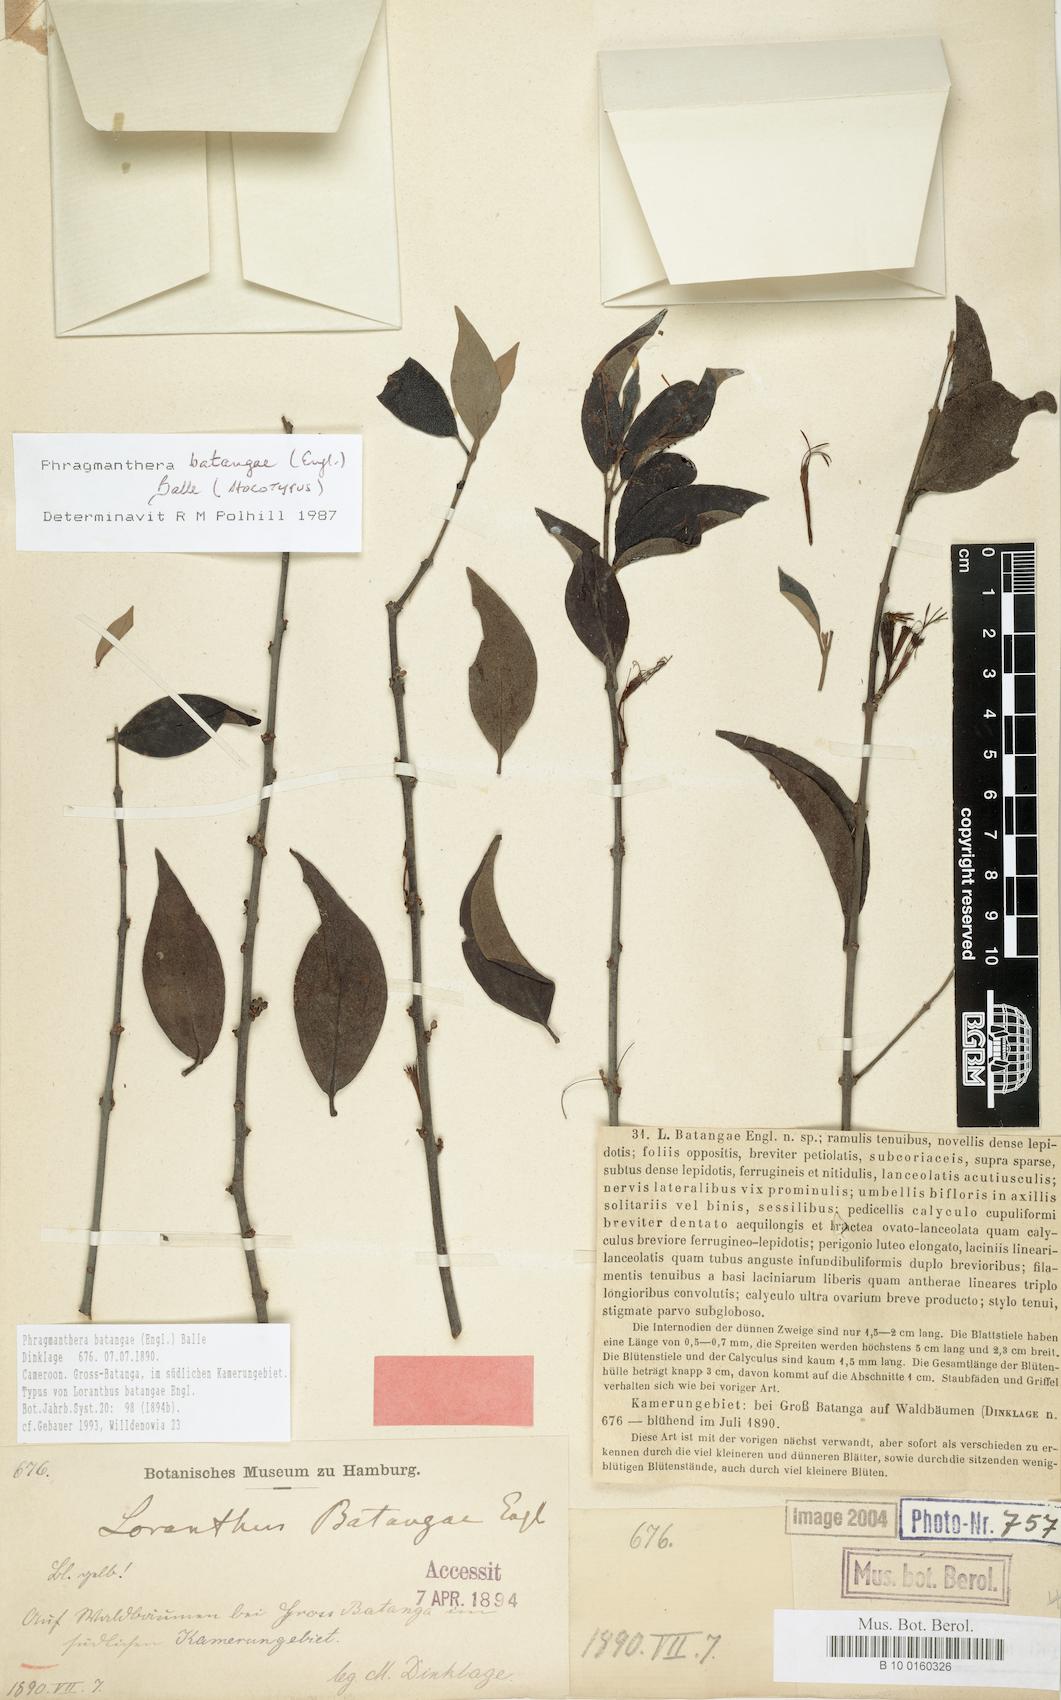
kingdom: Plantae
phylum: Tracheophyta
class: Magnoliopsida
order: Santalales
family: Loranthaceae
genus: Phragmanthera
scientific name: Phragmanthera batangae
